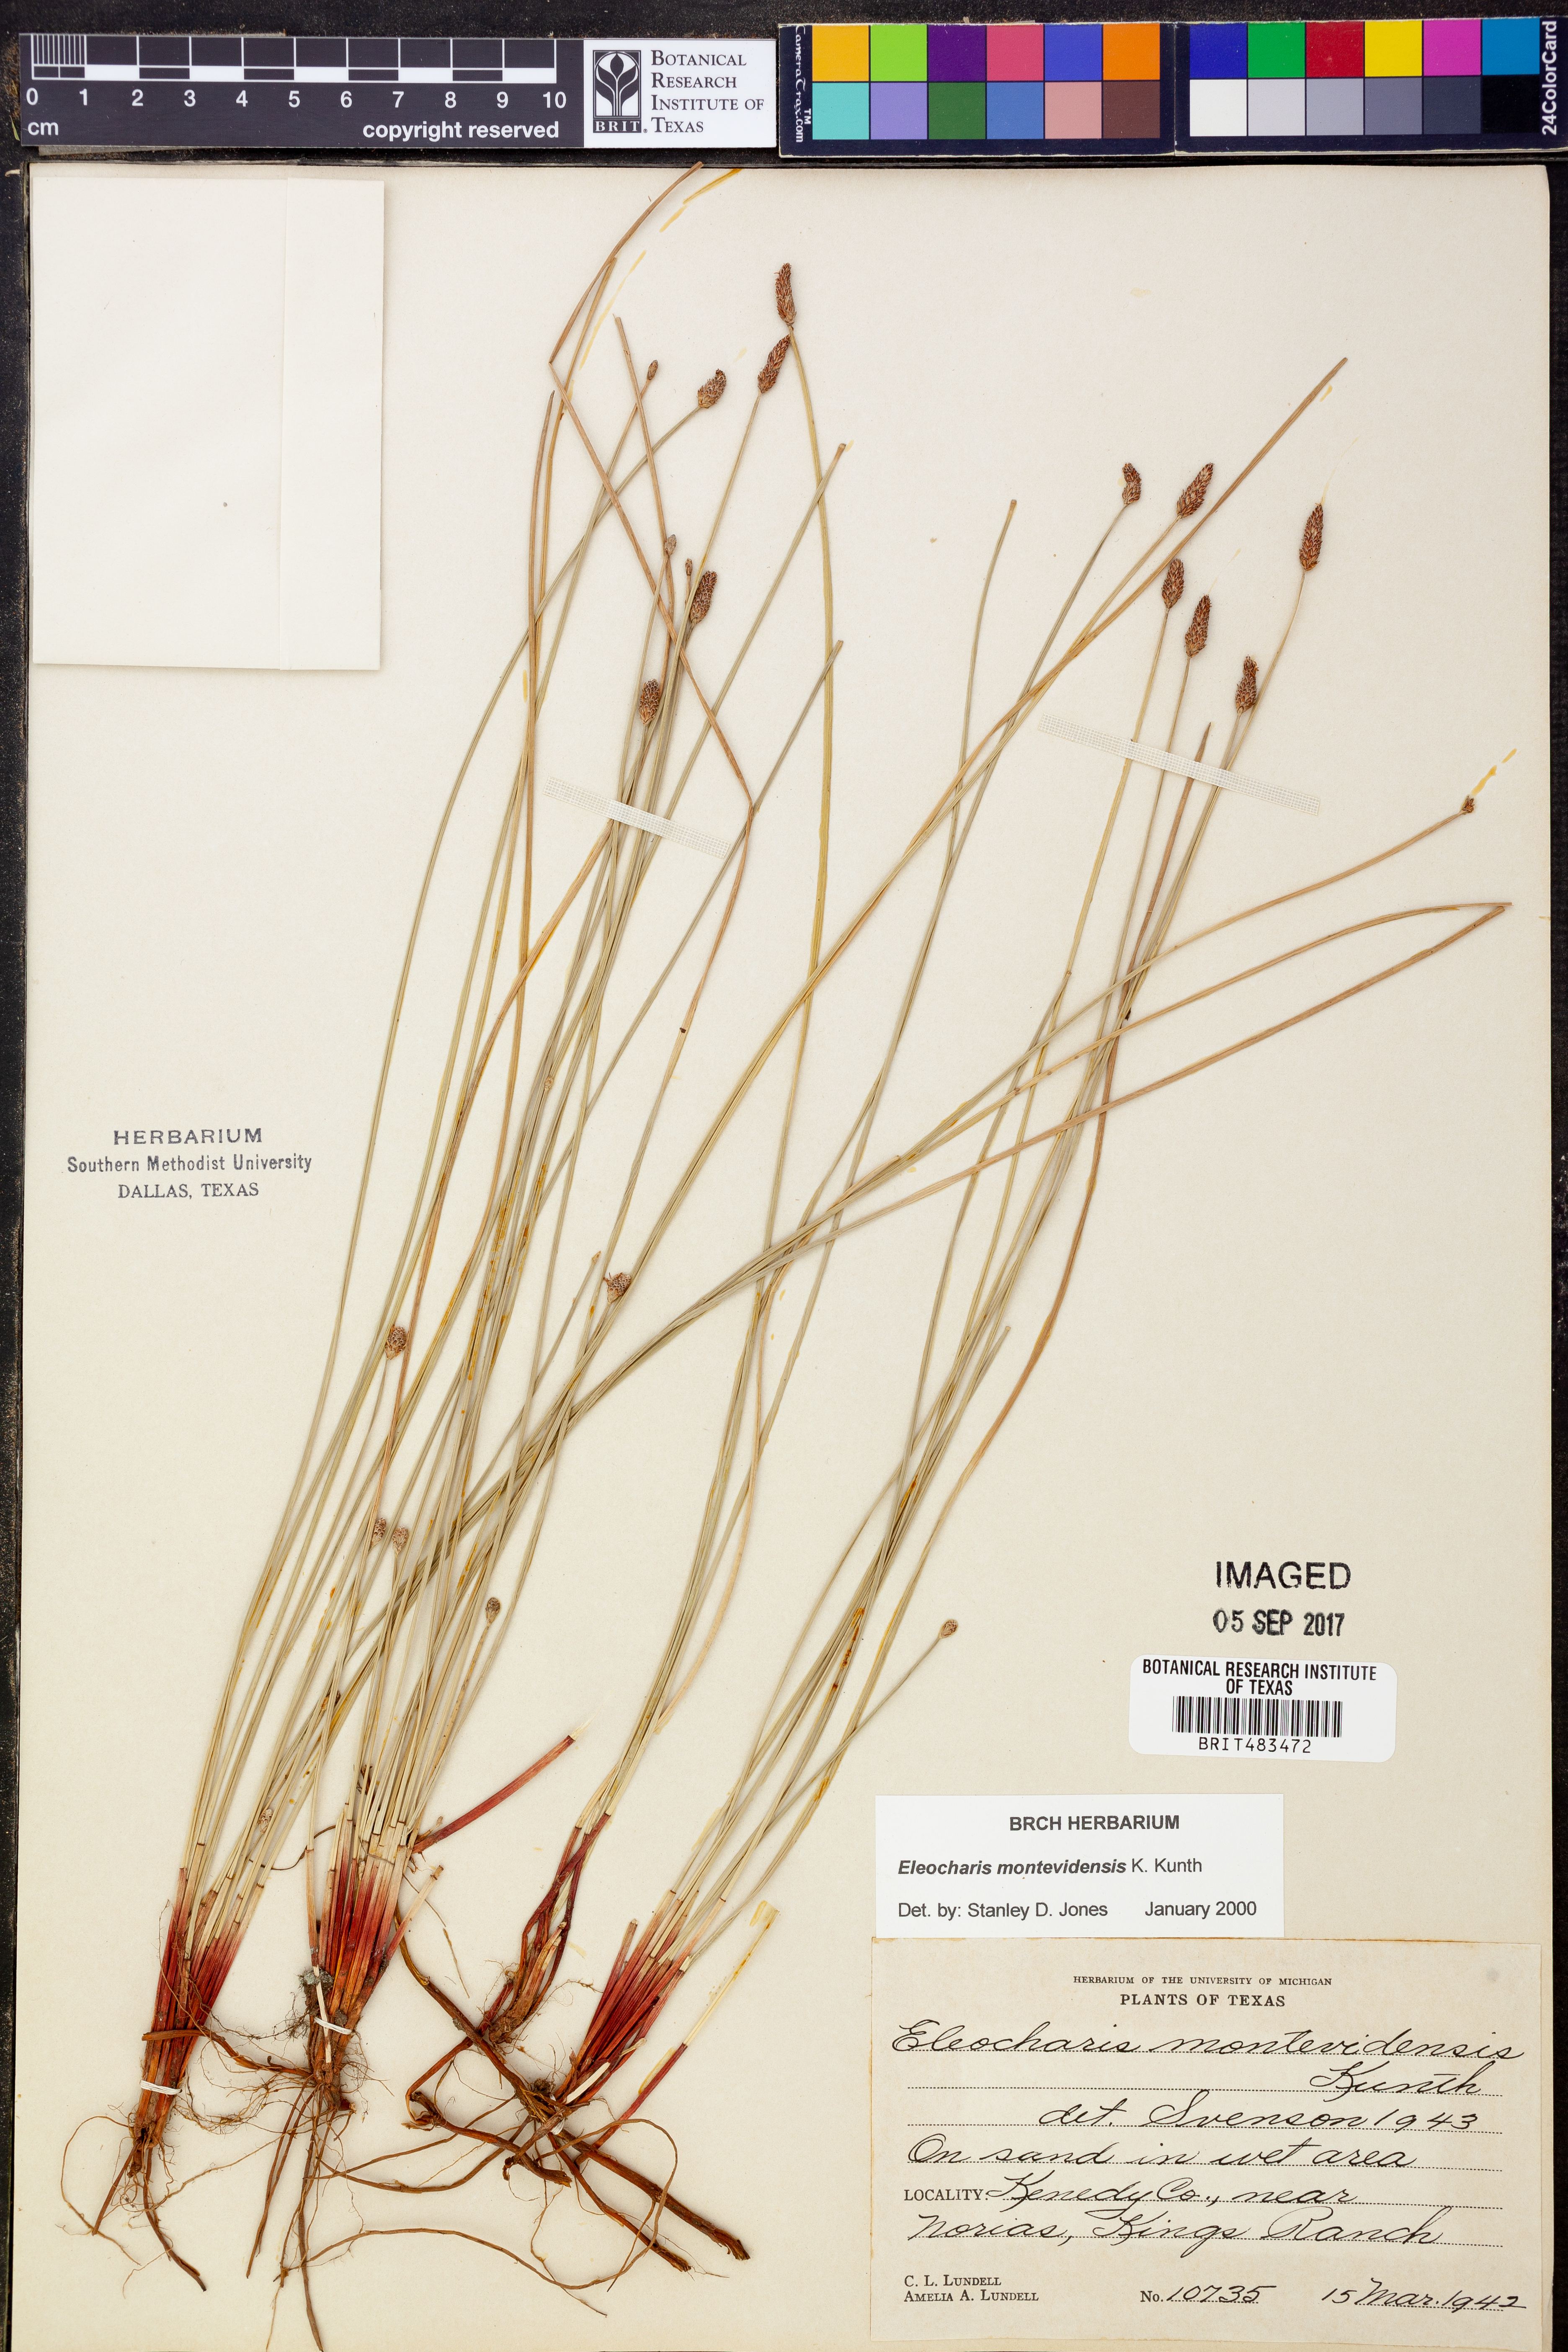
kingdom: Plantae
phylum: Tracheophyta
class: Liliopsida
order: Poales
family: Cyperaceae
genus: Eleocharis
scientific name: Eleocharis montevidensis
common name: Sand spike-rush
